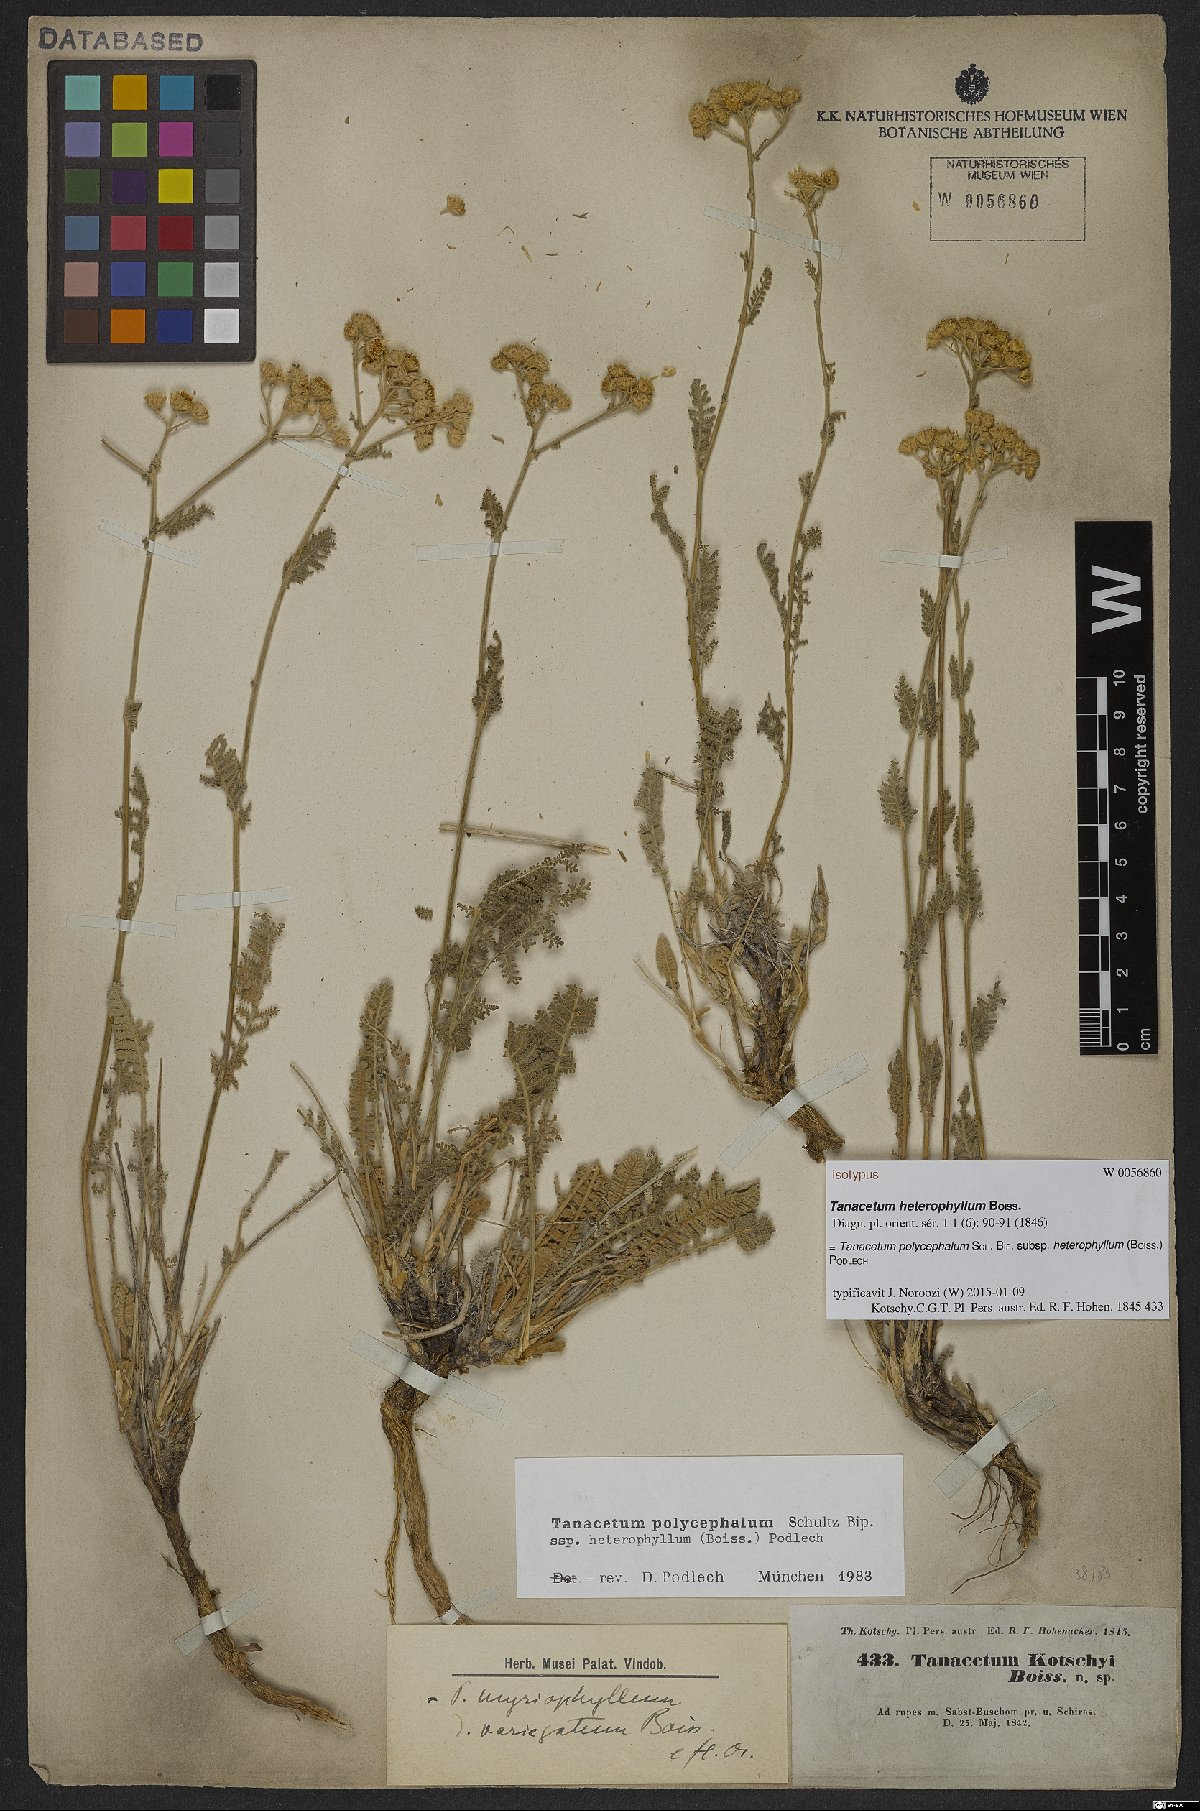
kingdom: Plantae
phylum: Tracheophyta
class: Magnoliopsida
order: Asterales
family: Asteraceae
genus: Tanacetum
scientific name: Tanacetum polycephalum
